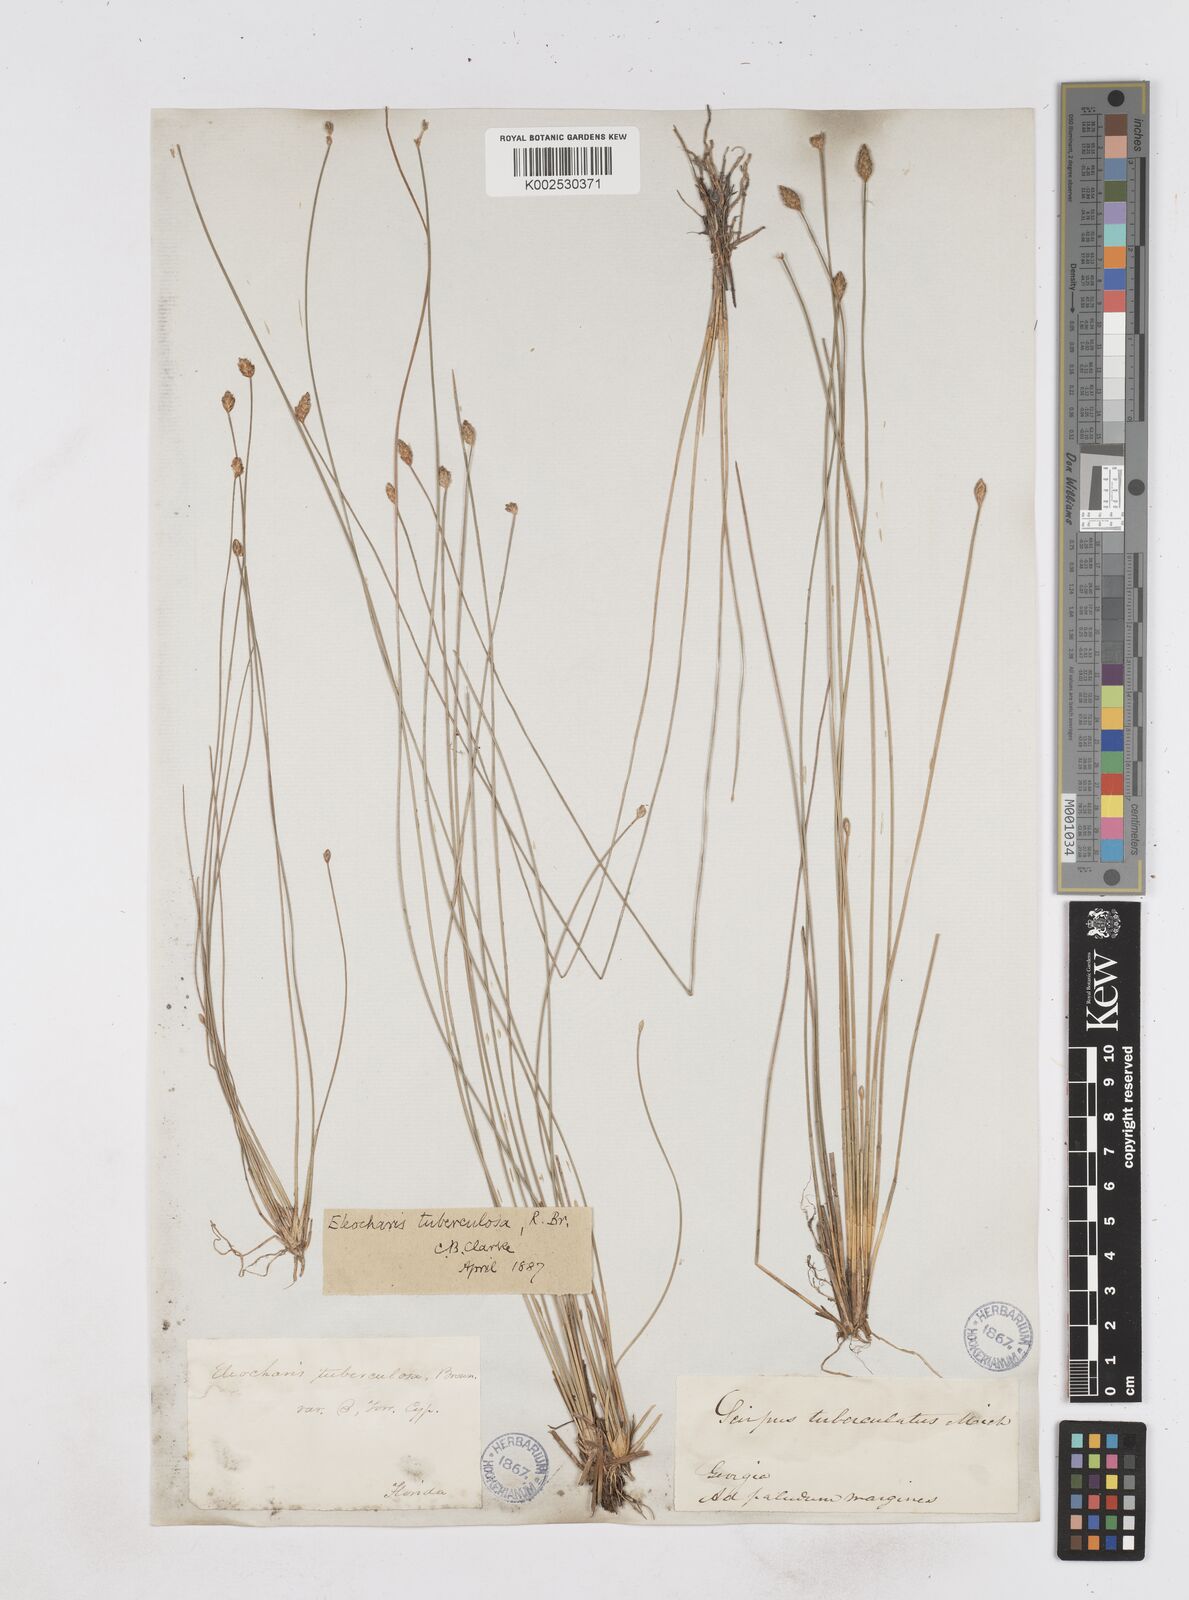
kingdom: Plantae
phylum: Tracheophyta
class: Liliopsida
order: Poales
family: Cyperaceae
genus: Eleocharis
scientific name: Eleocharis tuberculosa
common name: Cone-cup spikerush
